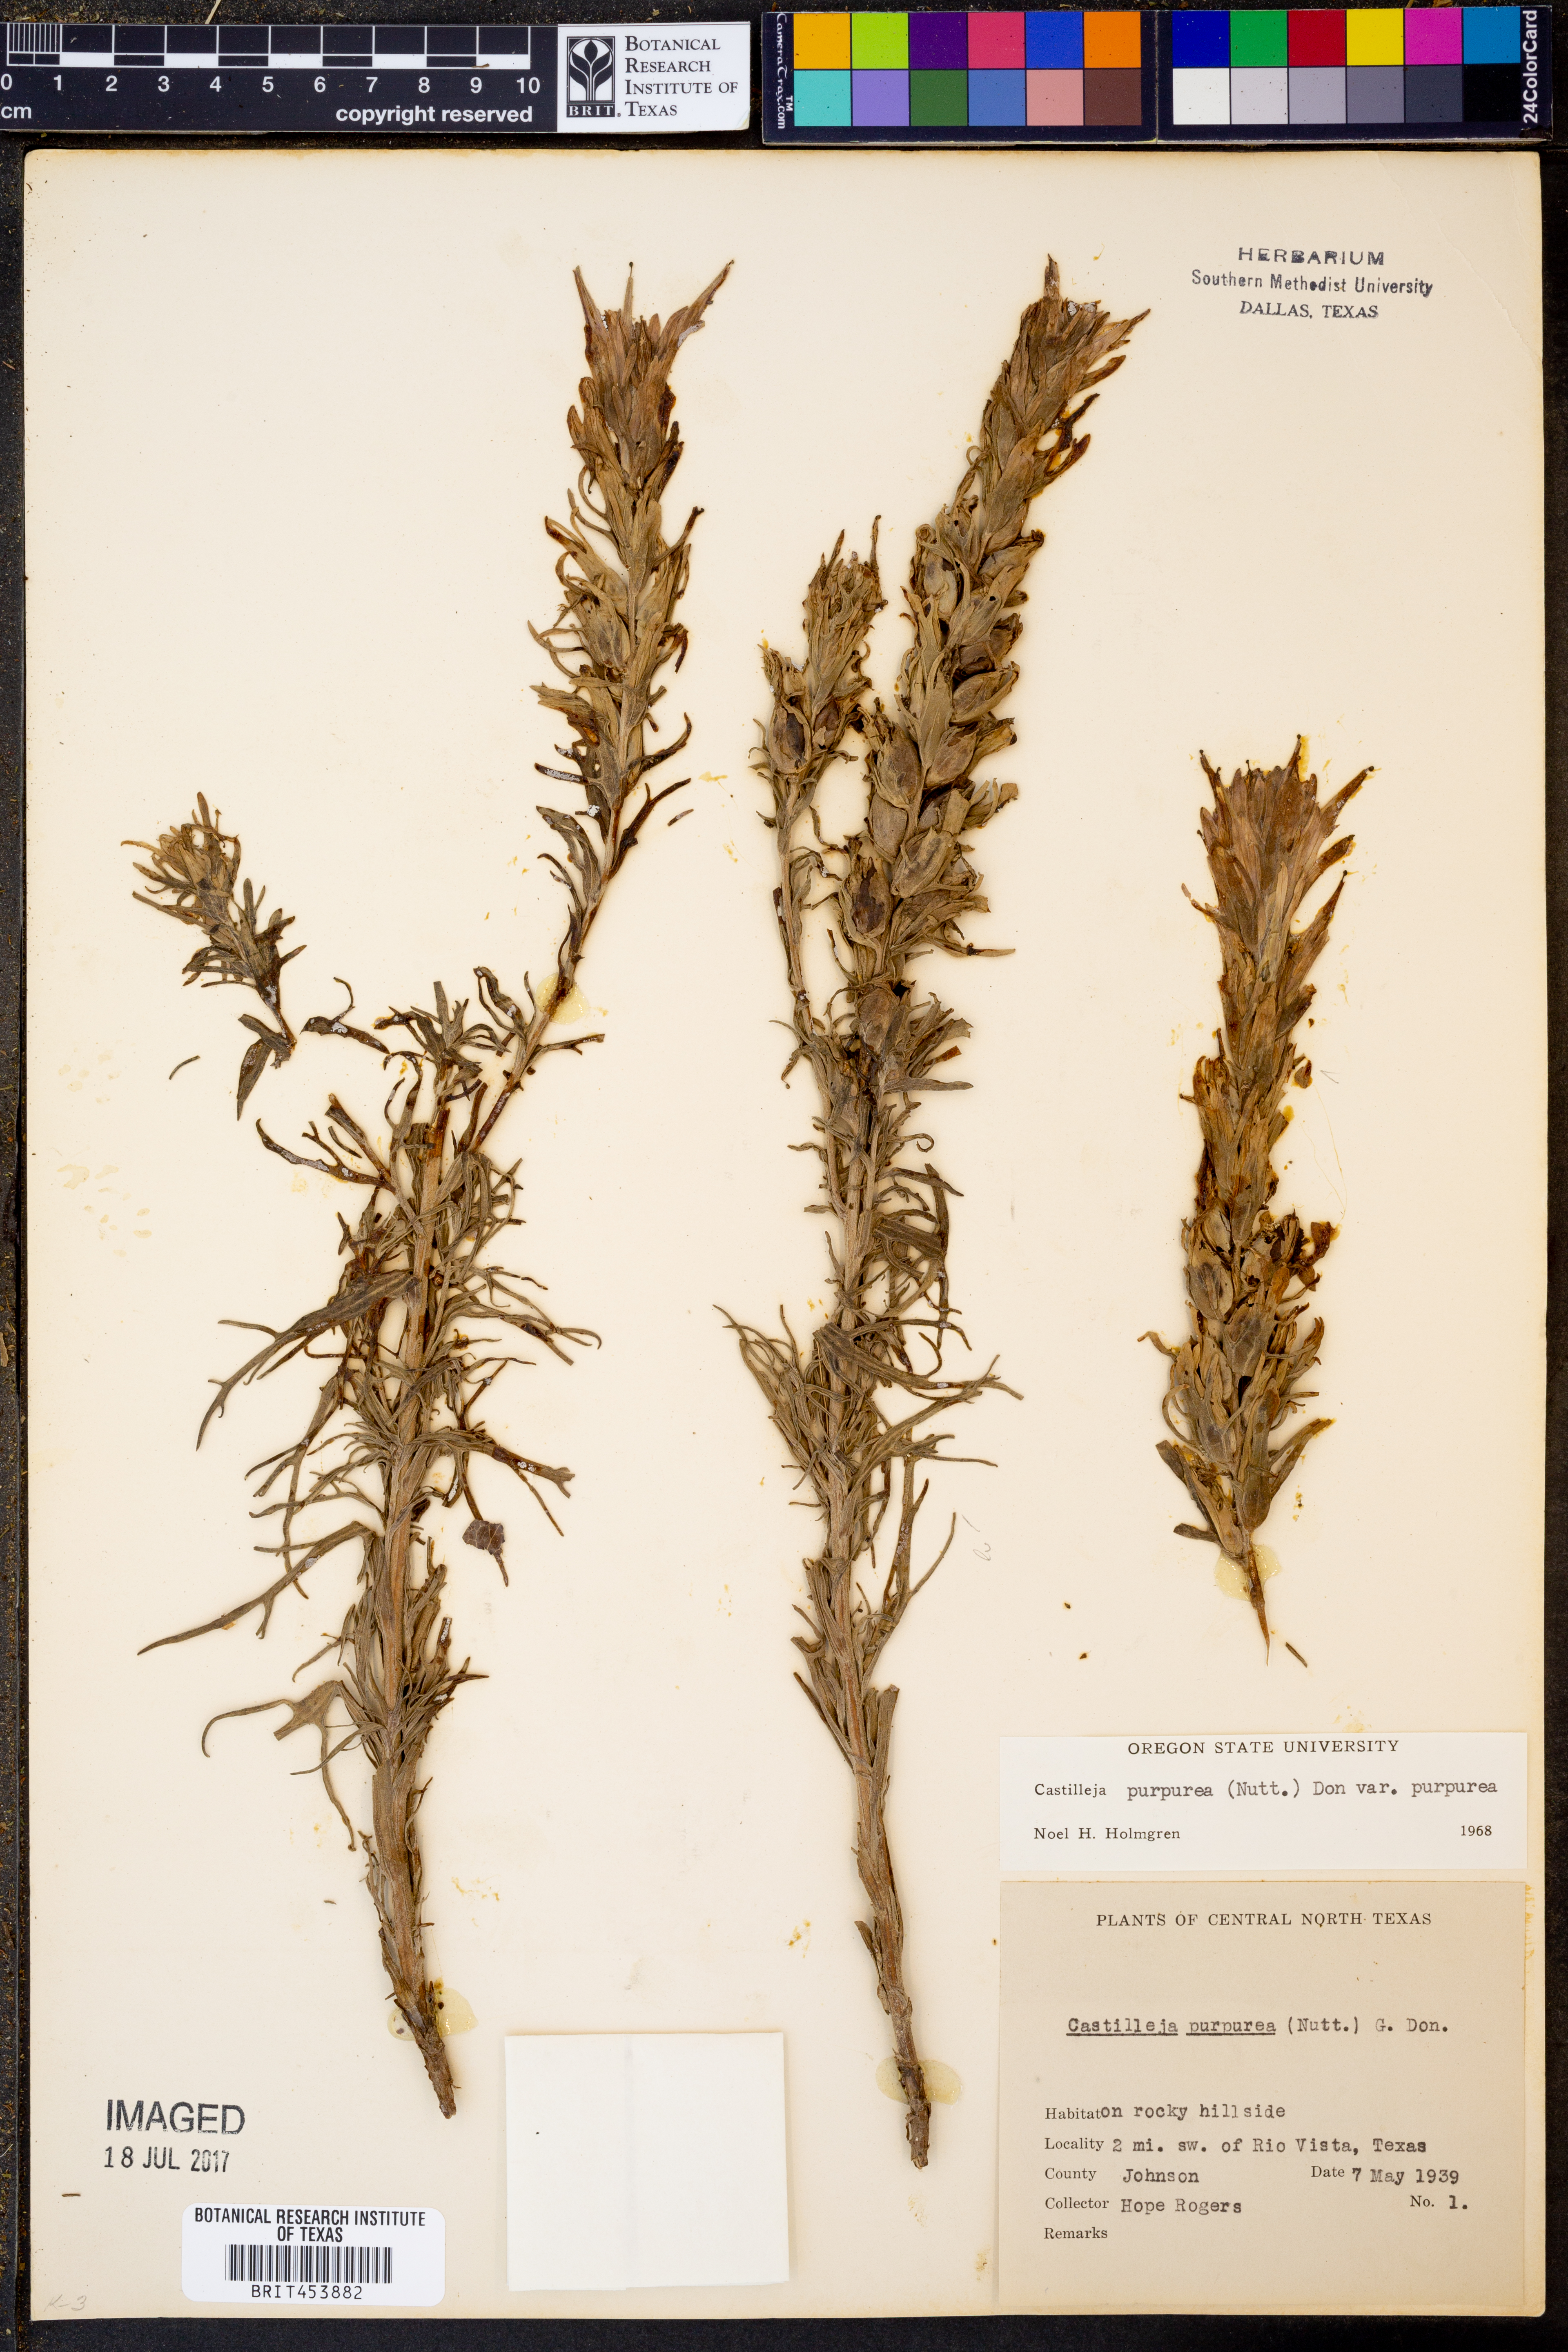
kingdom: Plantae
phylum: Tracheophyta
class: Magnoliopsida
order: Lamiales
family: Orobanchaceae
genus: Castilleja
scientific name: Castilleja purpurea
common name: Plains paintbrush
